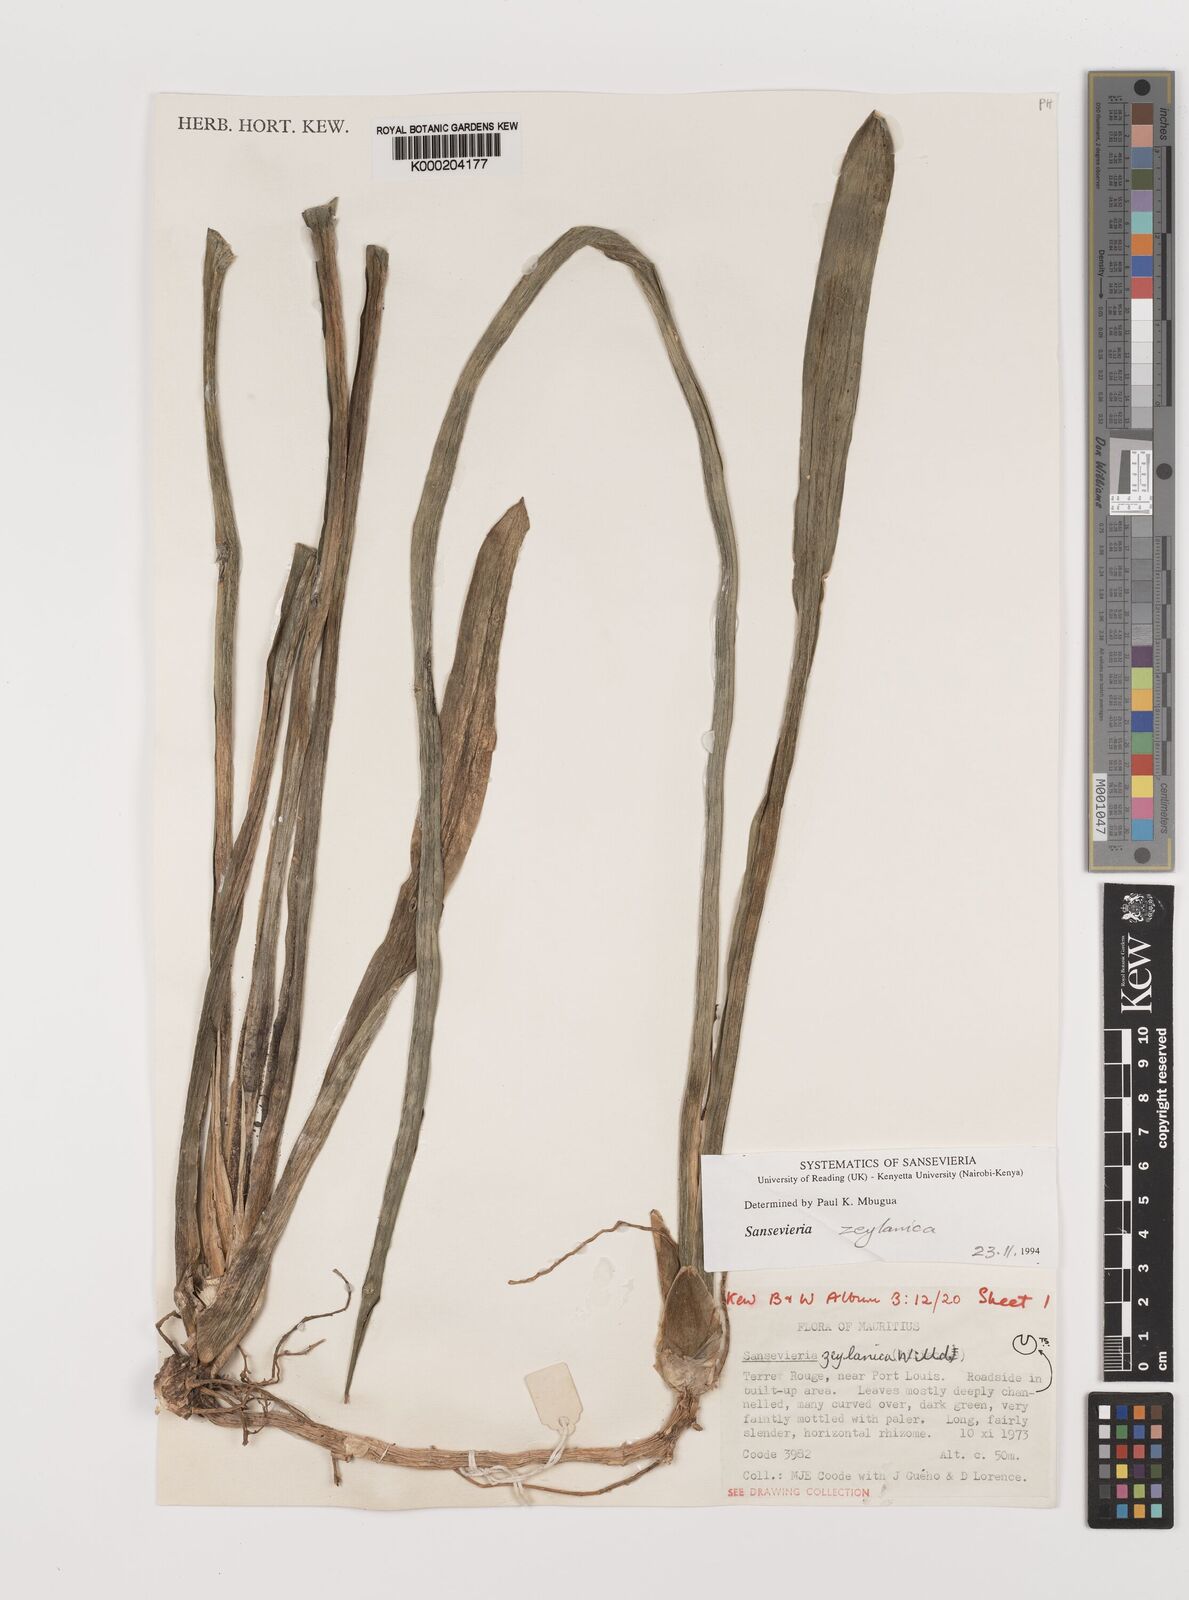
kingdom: Plantae
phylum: Tracheophyta
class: Liliopsida
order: Asparagales
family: Asparagaceae
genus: Dracaena
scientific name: Dracaena powellii
